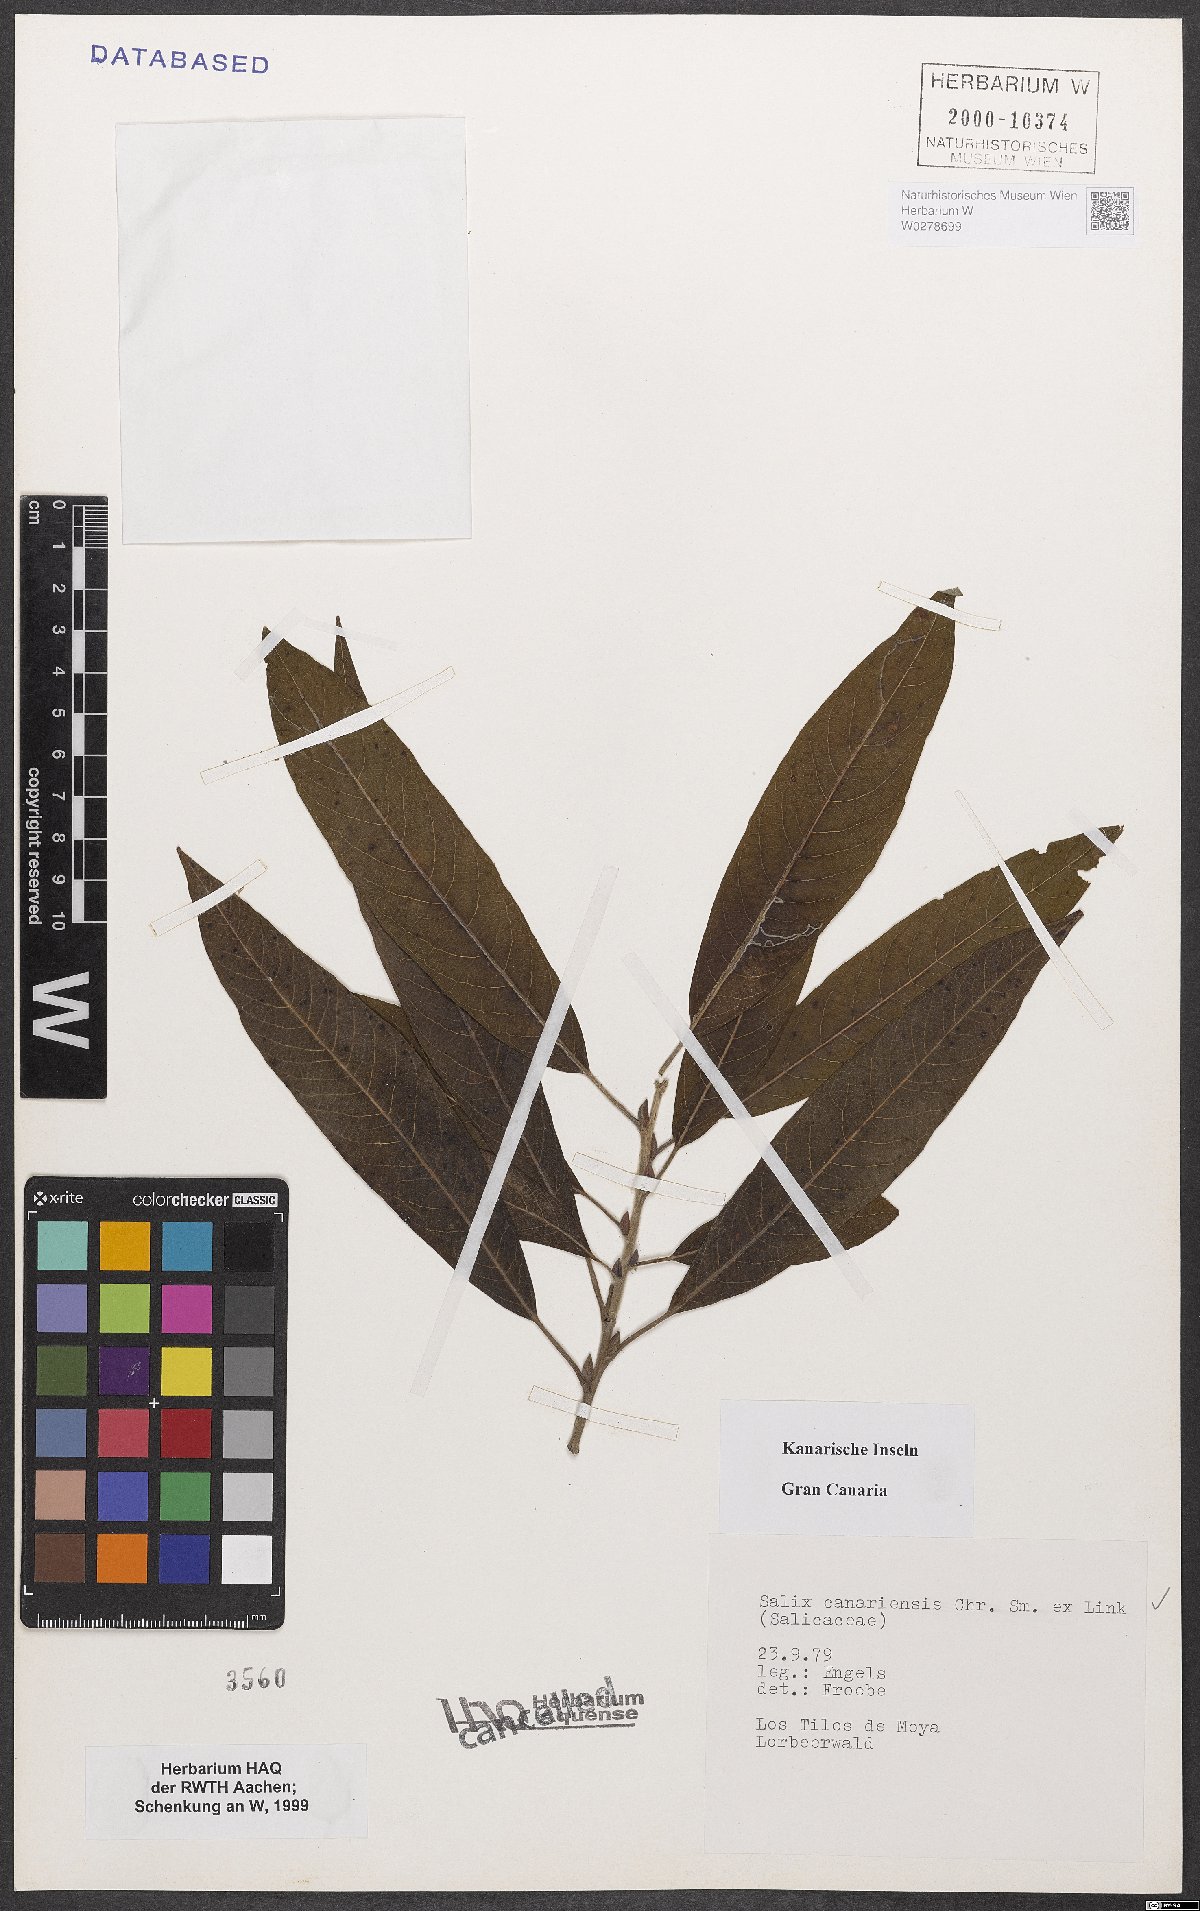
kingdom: Plantae
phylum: Tracheophyta
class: Magnoliopsida
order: Malpighiales
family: Salicaceae
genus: Salix
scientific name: Salix canariensis
